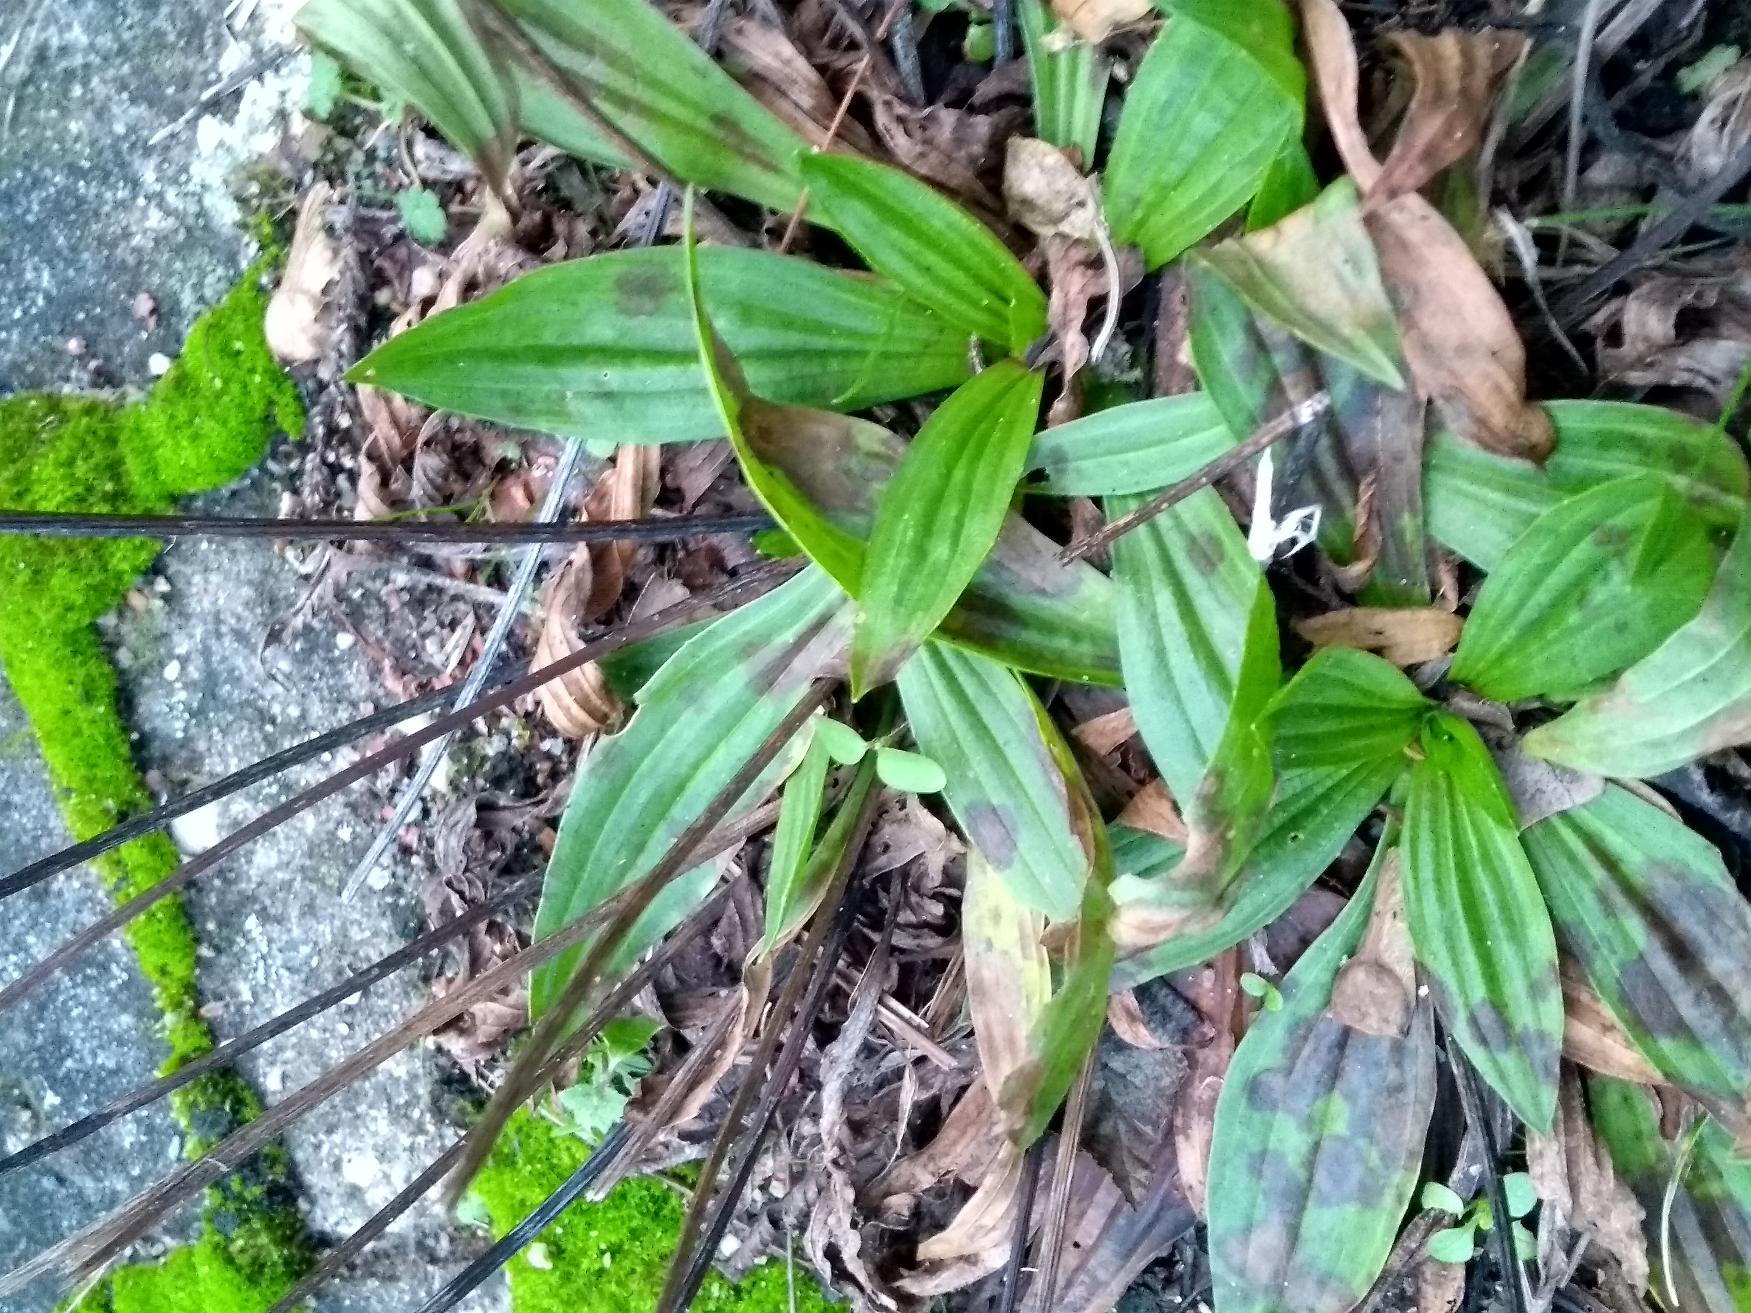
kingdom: Plantae
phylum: Tracheophyta
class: Magnoliopsida
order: Lamiales
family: Plantaginaceae
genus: Plantago
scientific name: Plantago lanceolata
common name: Lancet-vejbred
